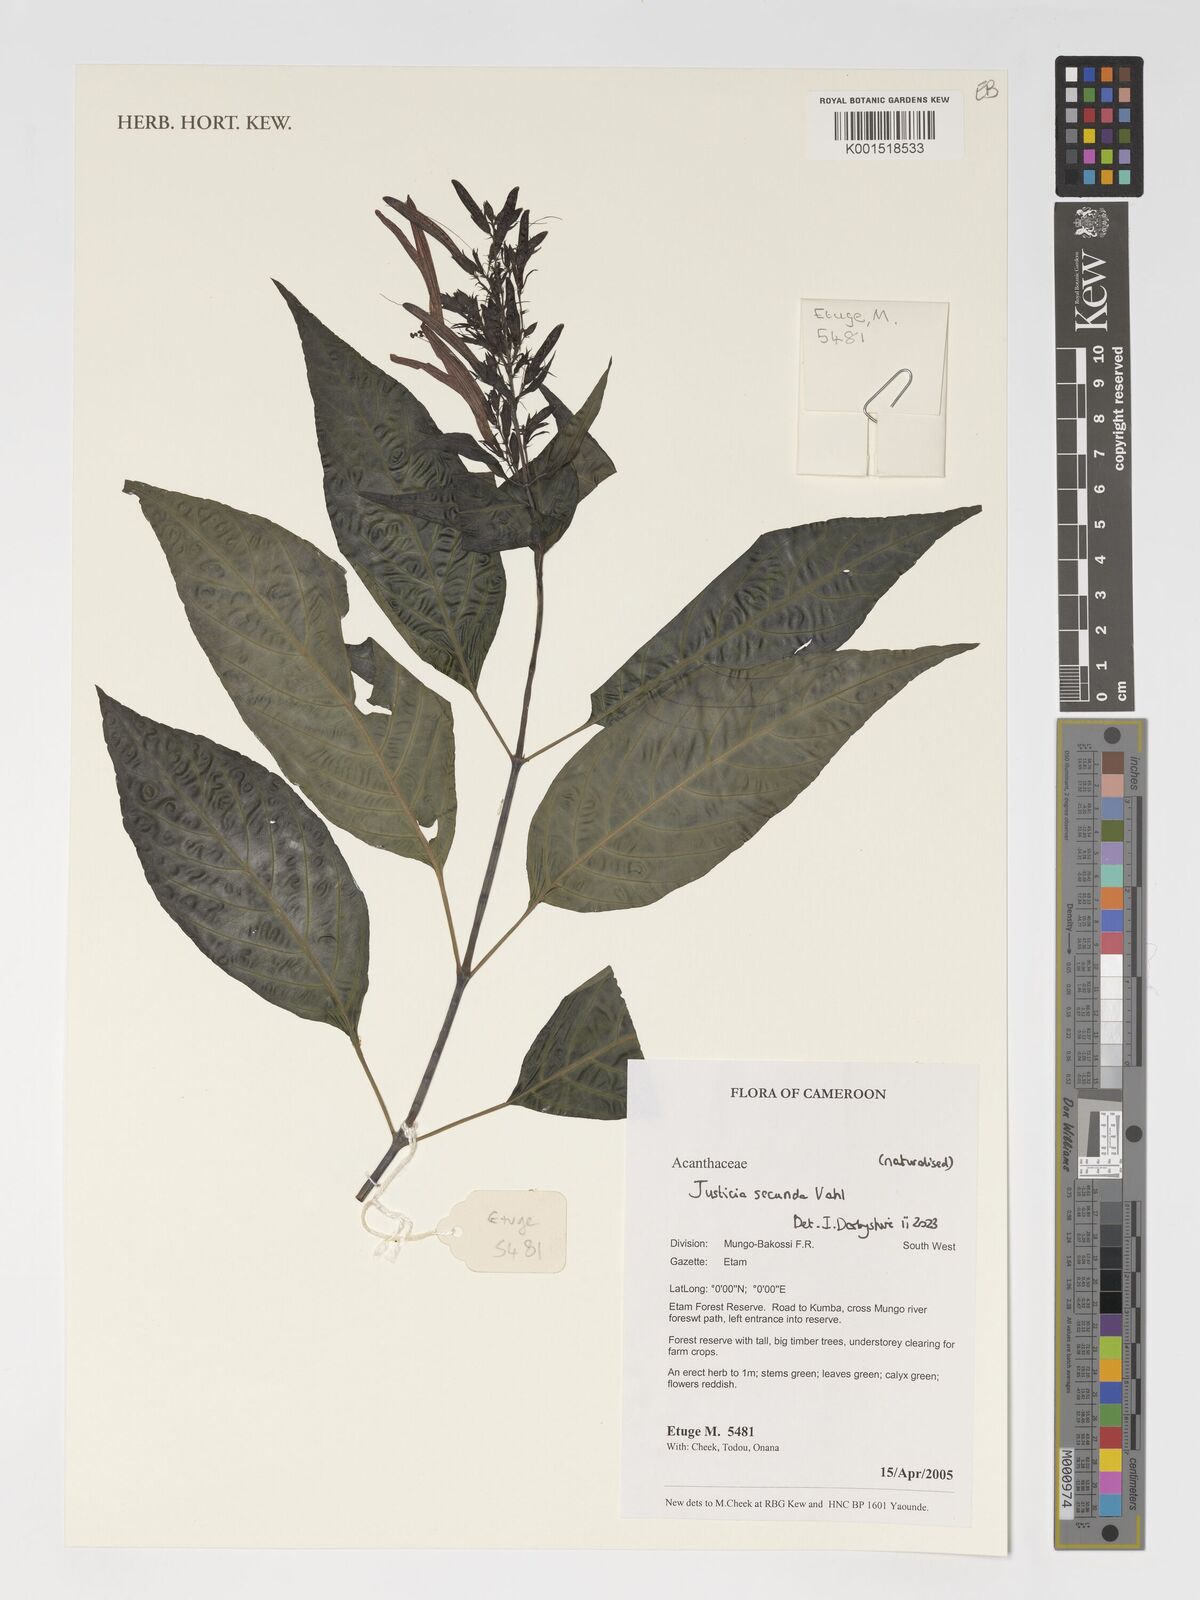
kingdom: Plantae
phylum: Tracheophyta
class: Magnoliopsida
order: Lamiales
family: Acanthaceae
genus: Justicia
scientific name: Justicia
